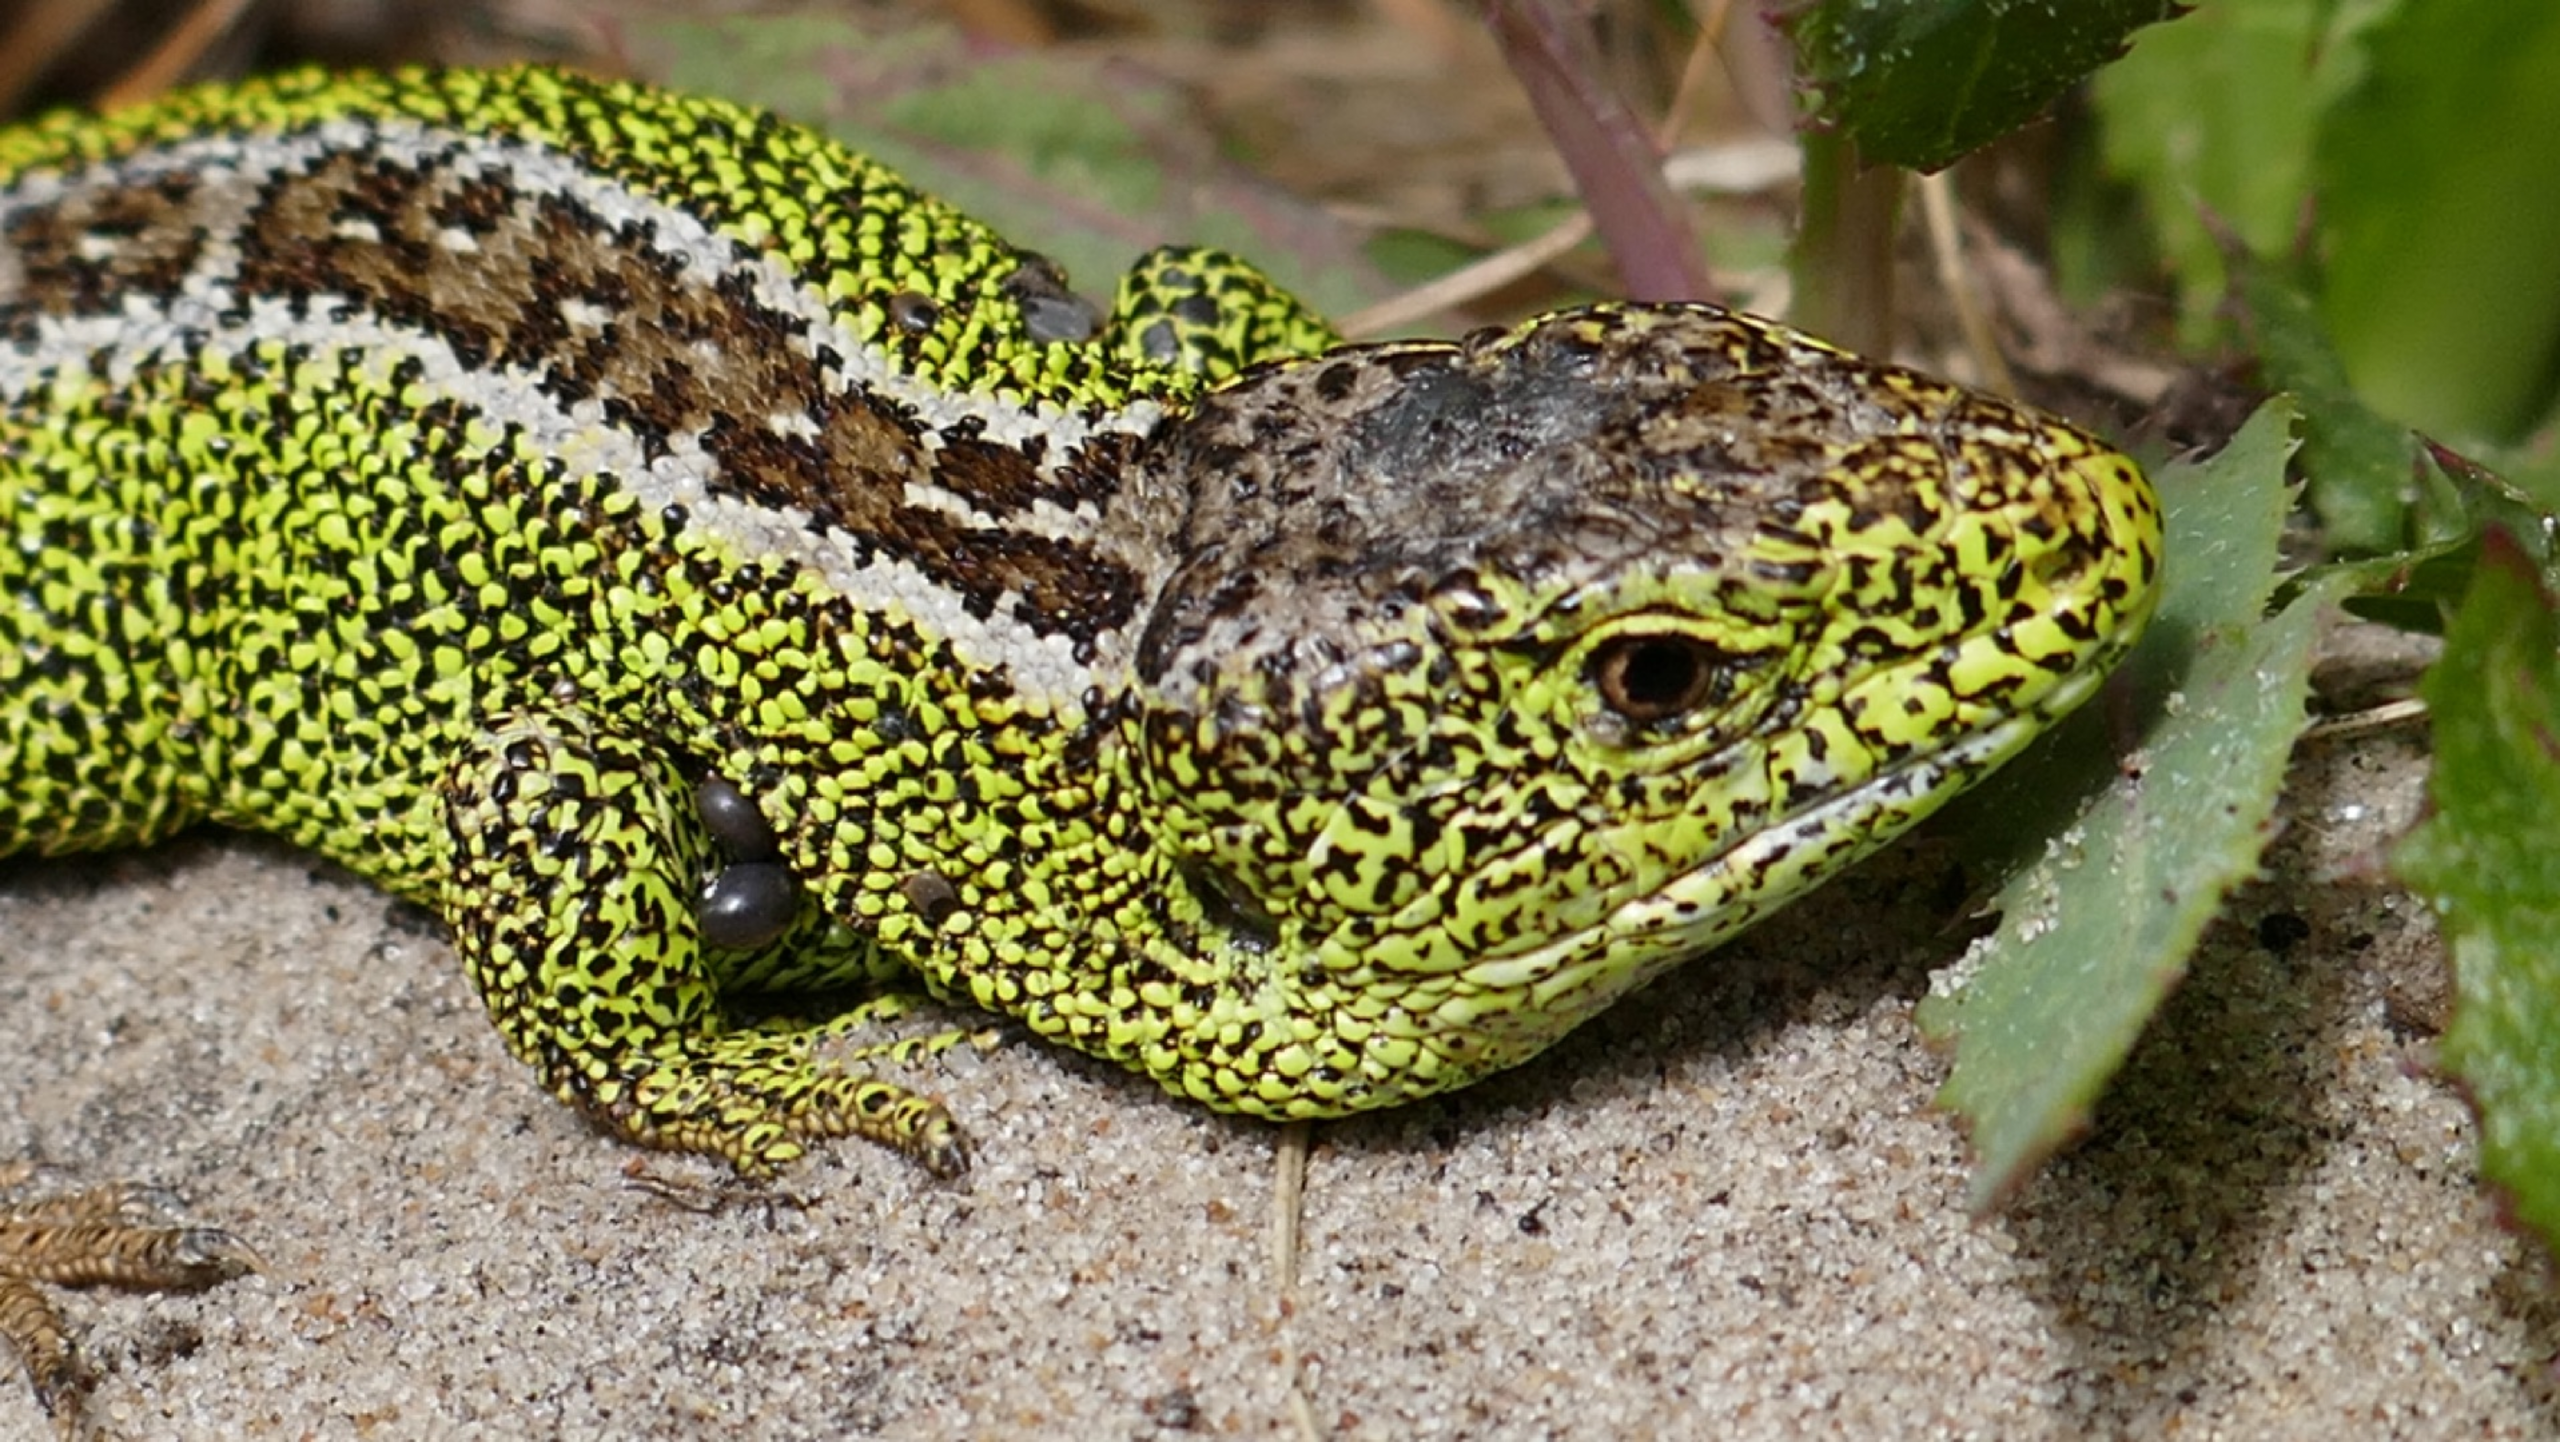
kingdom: Animalia
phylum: Chordata
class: Squamata
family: Lacertidae
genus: Lacerta
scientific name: Lacerta agilis
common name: Markfirben
